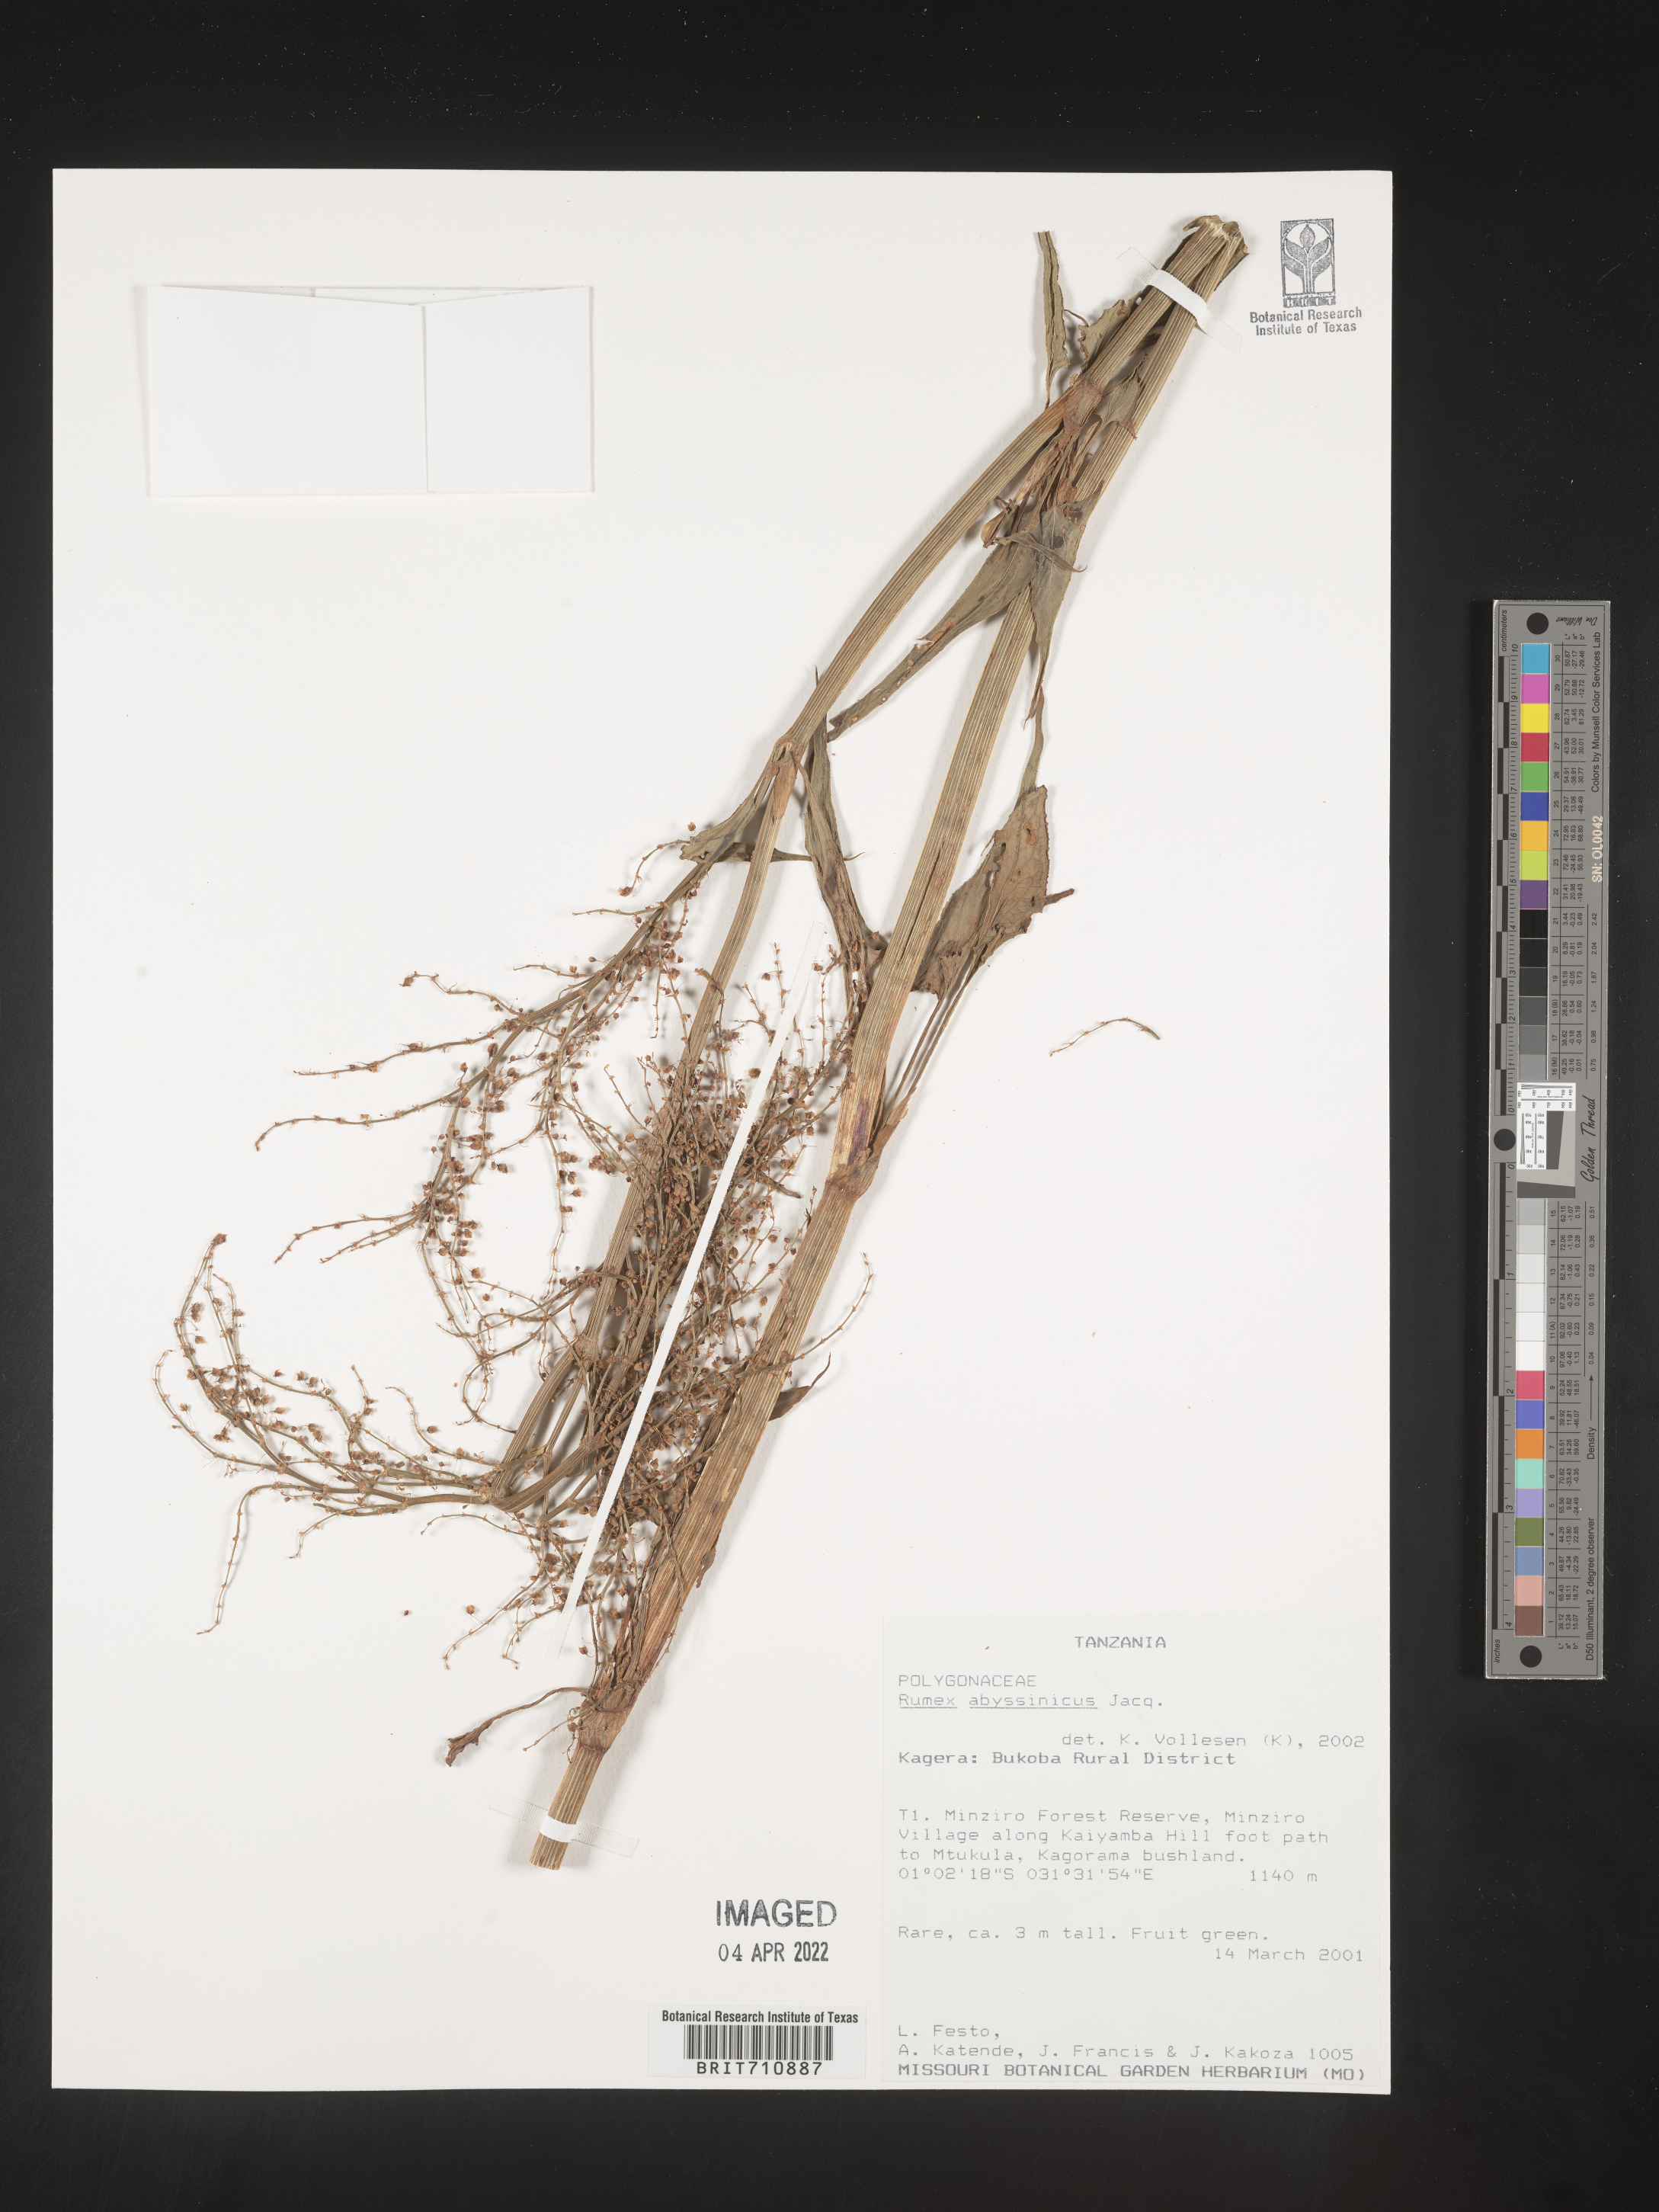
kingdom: Plantae
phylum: Tracheophyta
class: Magnoliopsida
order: Caryophyllales
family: Polygonaceae
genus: Rumex
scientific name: Rumex
